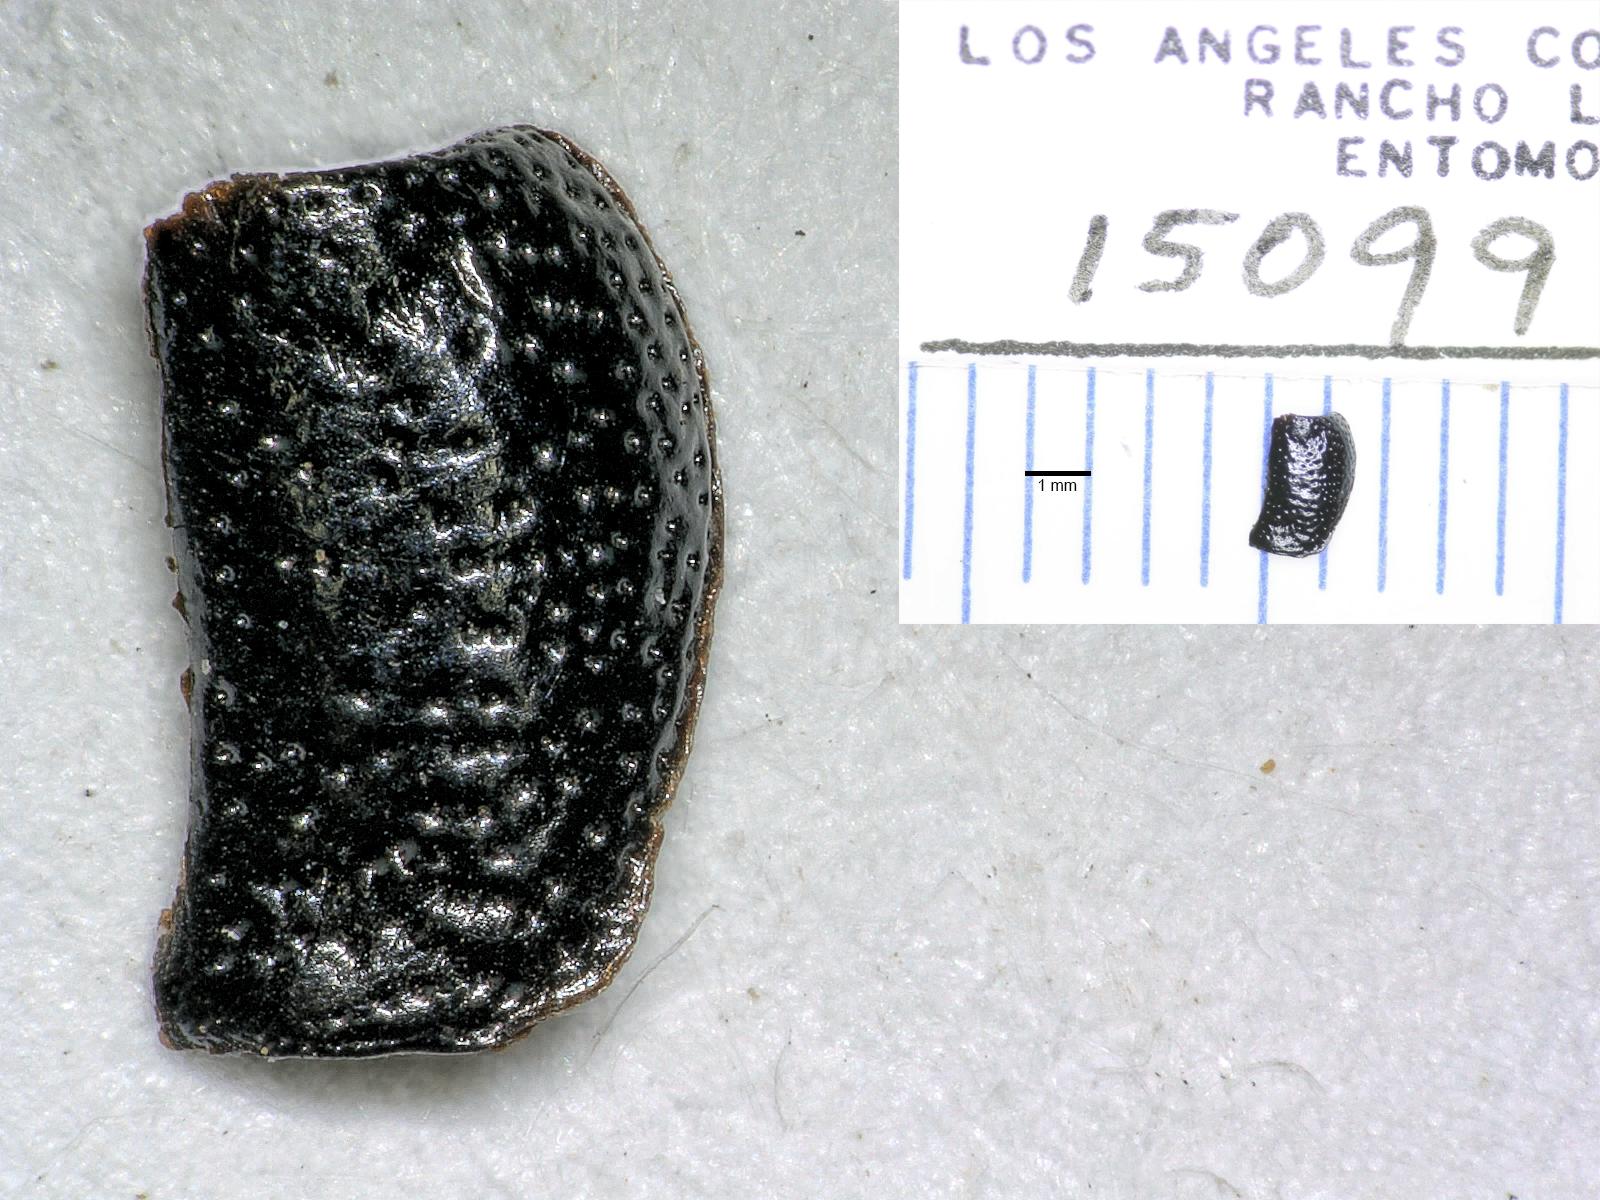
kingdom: Animalia
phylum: Arthropoda
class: Insecta
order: Coleoptera
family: Carabidae
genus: Dicheirus
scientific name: Dicheirus dilatatus
